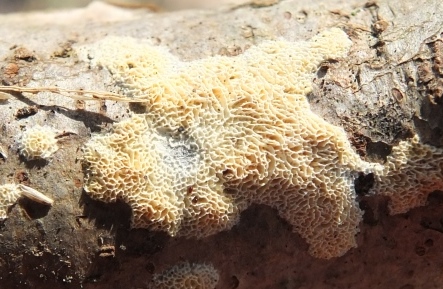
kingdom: Fungi
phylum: Basidiomycota
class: Agaricomycetes
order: Hymenochaetales
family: Schizoporaceae
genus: Xylodon
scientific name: Xylodon subtropicus
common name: labyrint-tandsvamp
